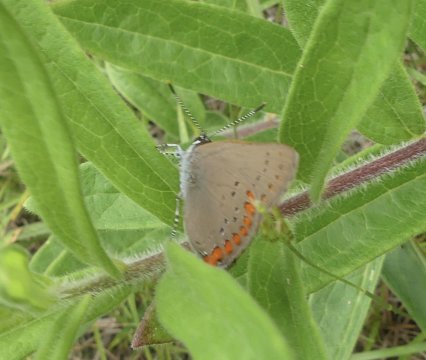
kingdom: Animalia
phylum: Arthropoda
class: Insecta
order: Lepidoptera
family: Lycaenidae
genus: Harkenclenus
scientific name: Harkenclenus titus
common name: Coral Hairstreak
